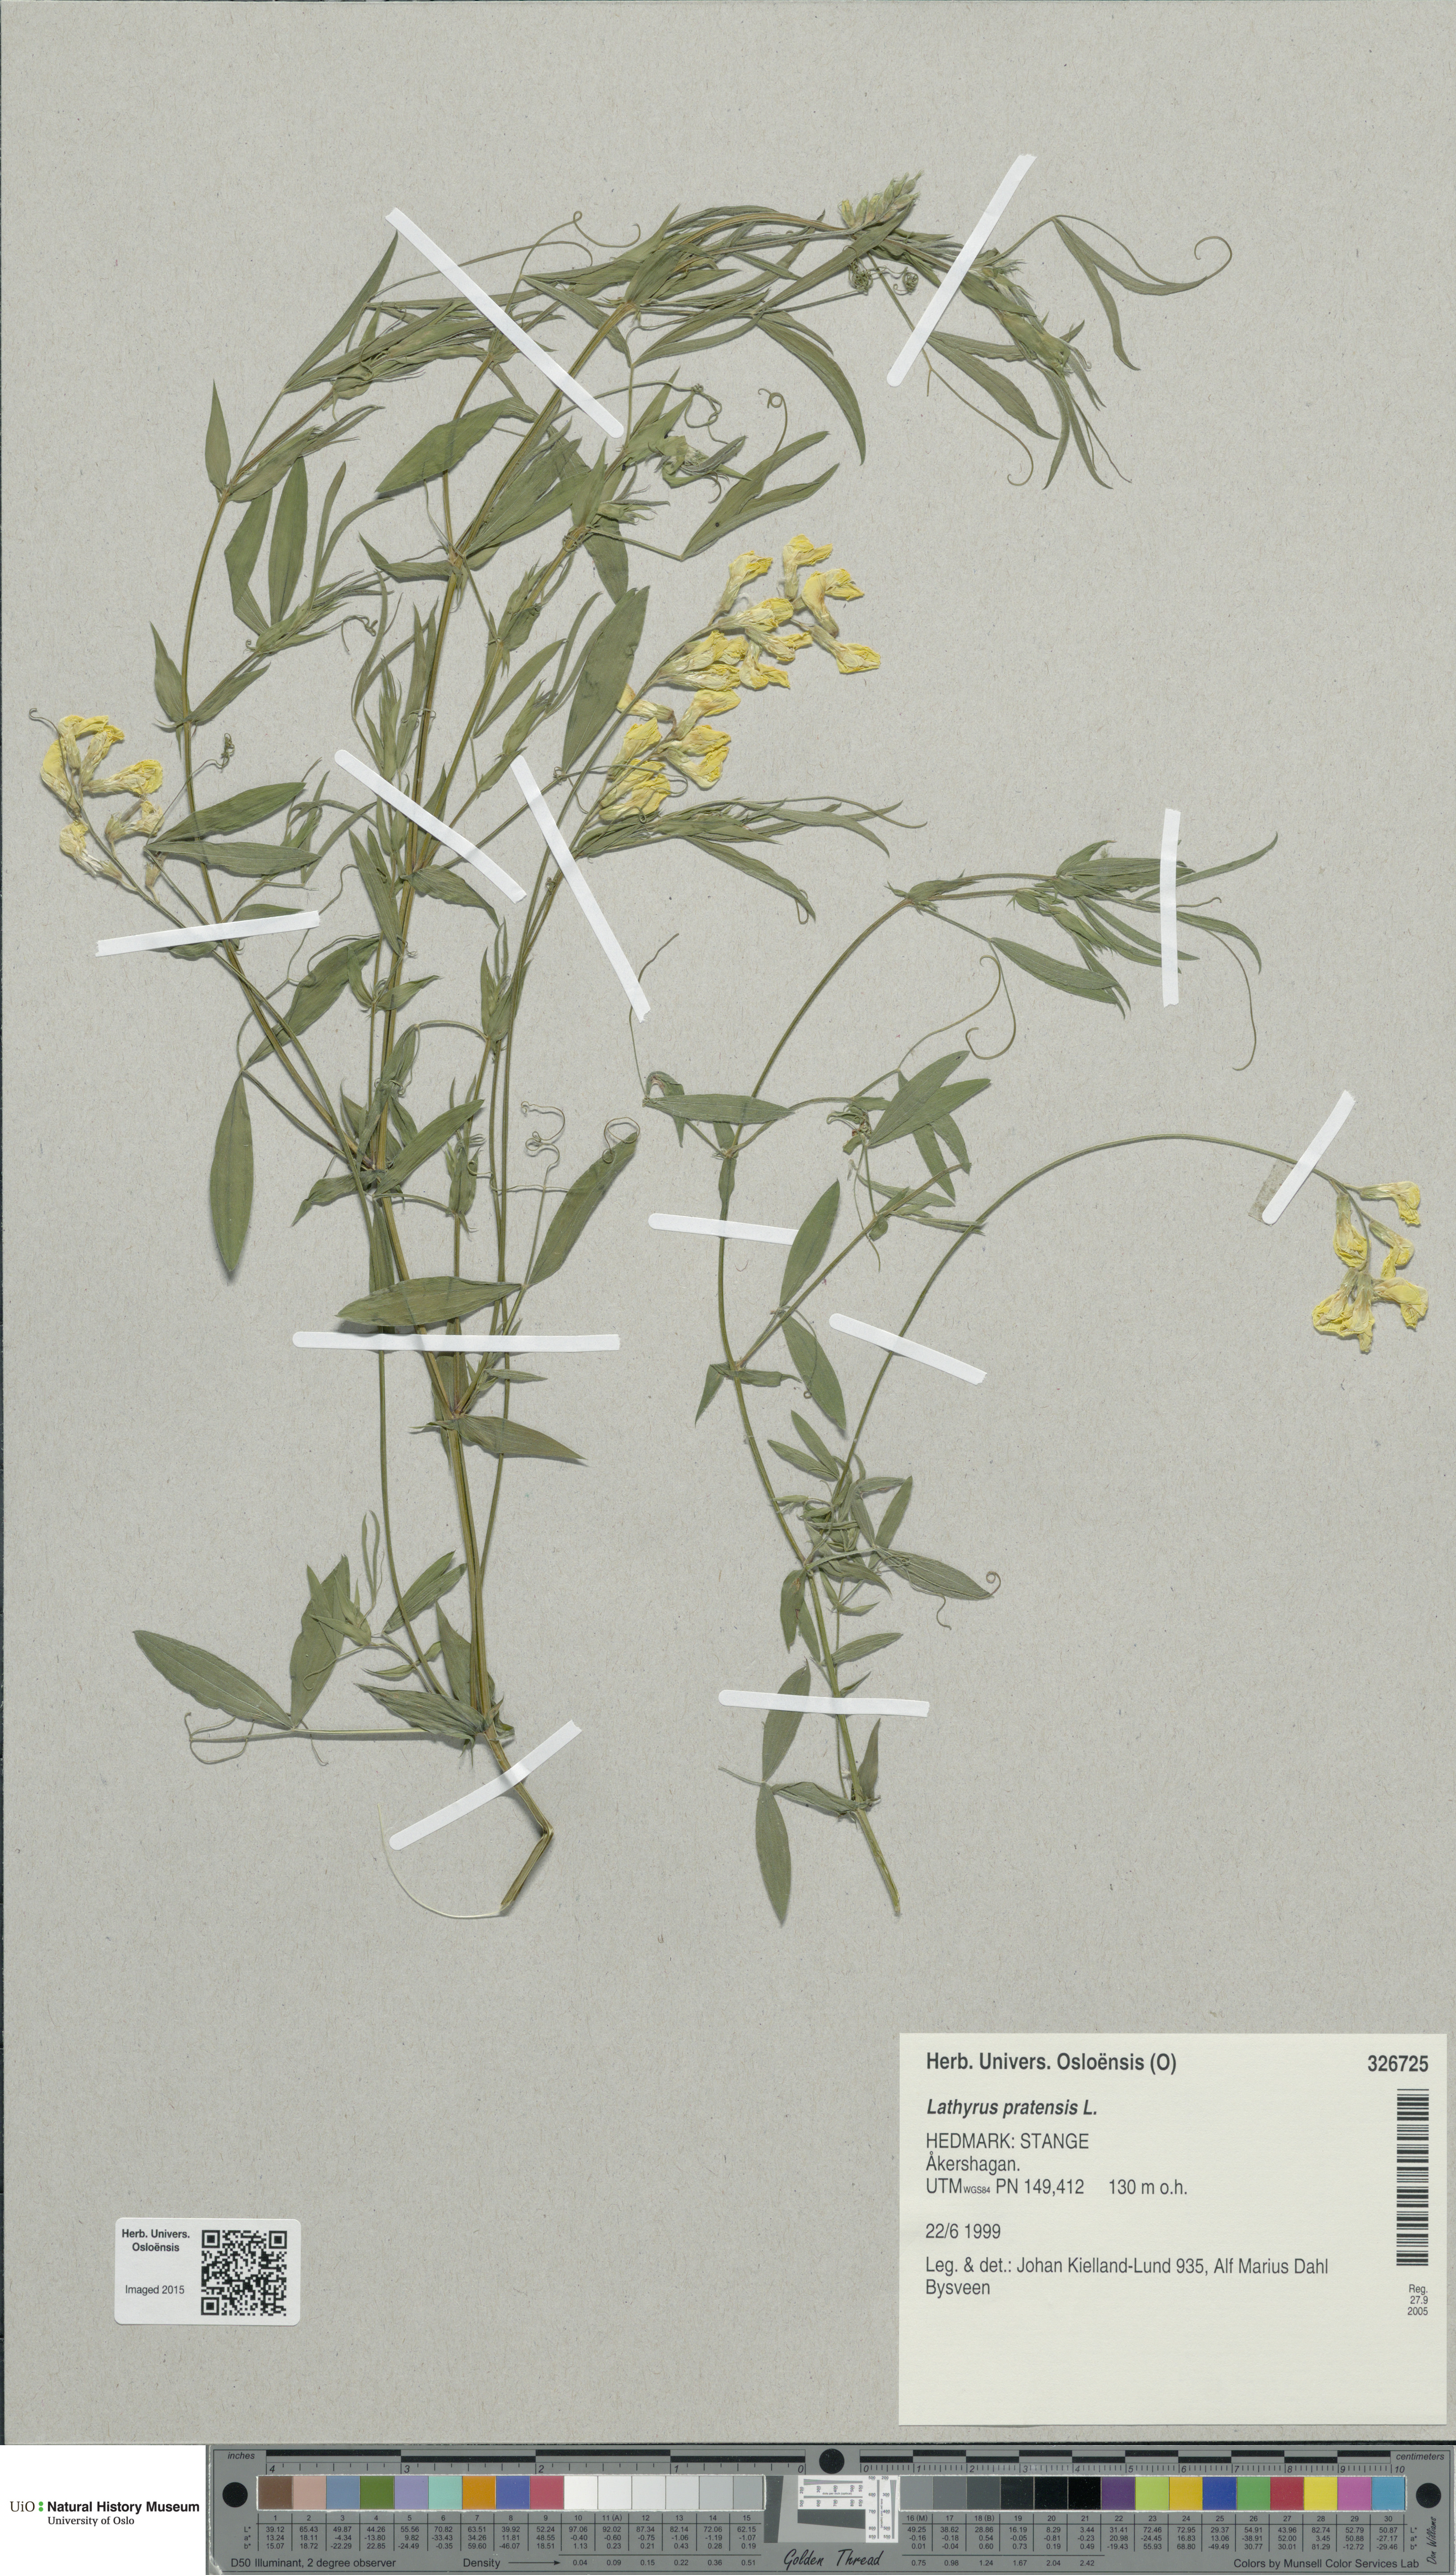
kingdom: Plantae
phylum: Tracheophyta
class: Magnoliopsida
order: Fabales
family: Fabaceae
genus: Lathyrus
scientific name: Lathyrus pratensis
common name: Meadow vetchling
